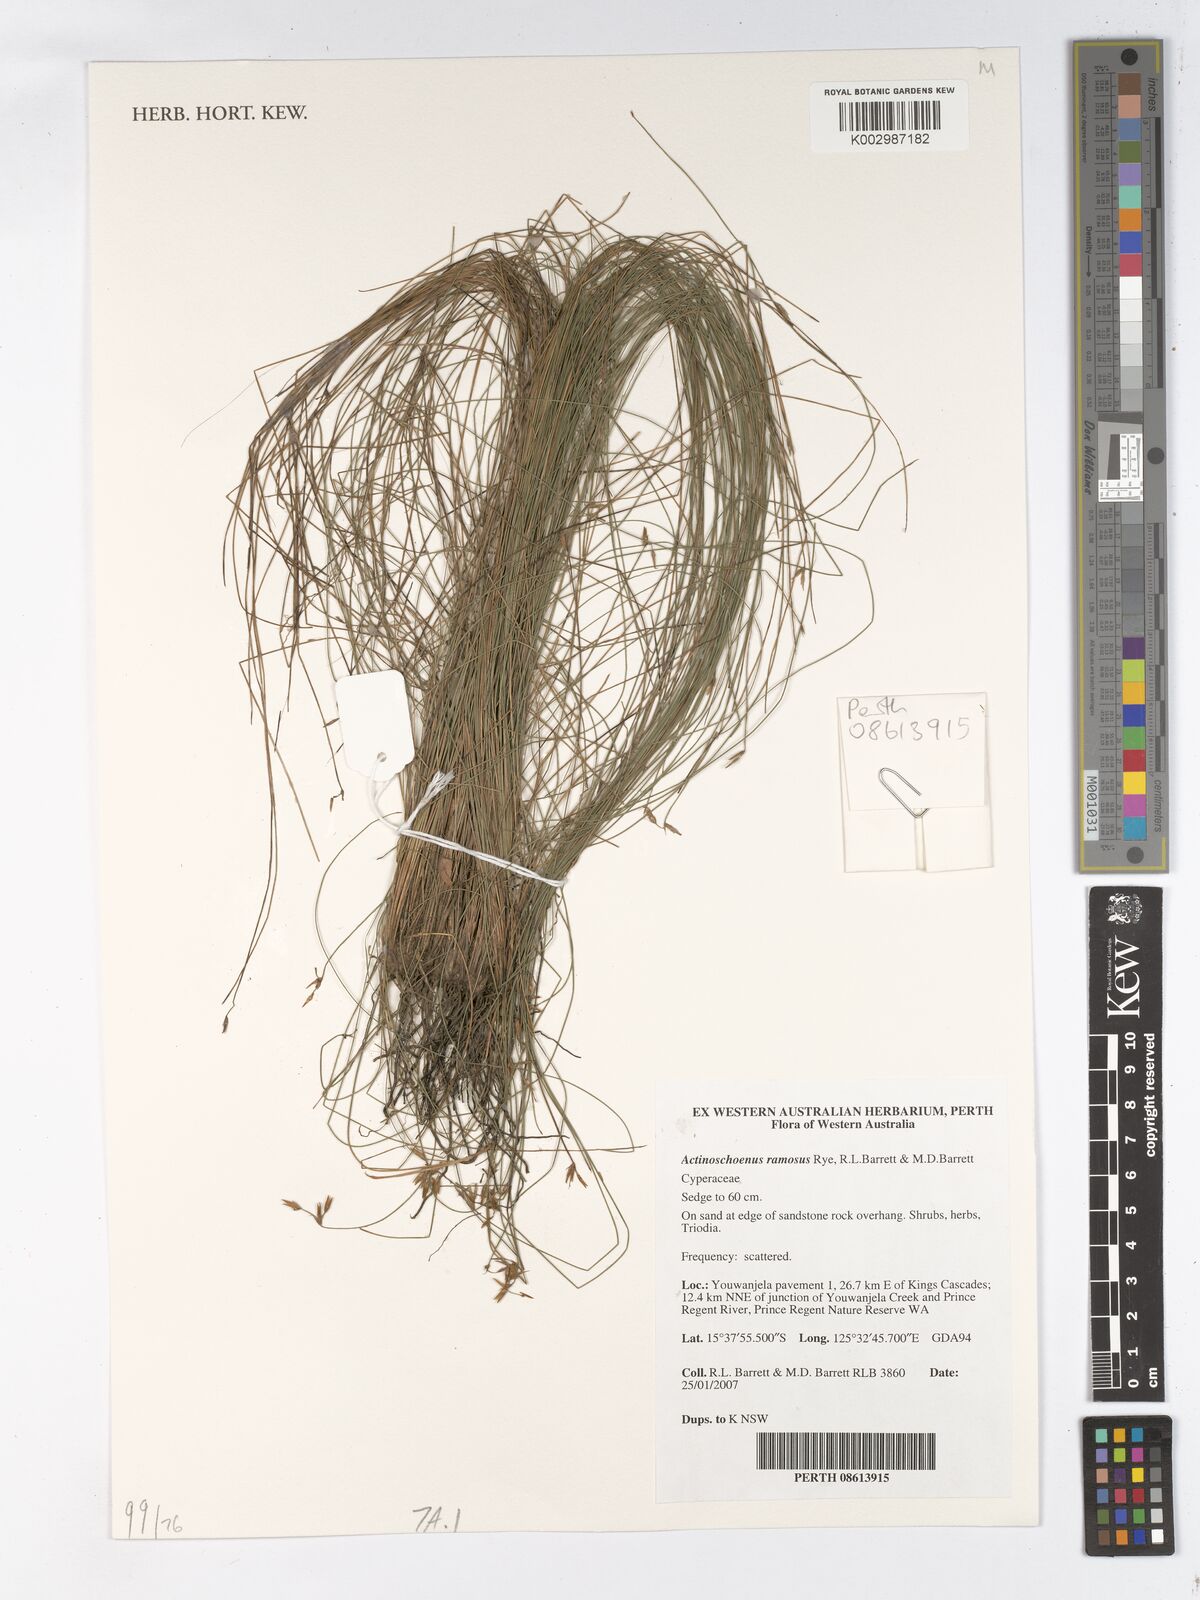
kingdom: Plantae
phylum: Tracheophyta
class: Liliopsida
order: Poales
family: Cyperaceae
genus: Scleroschoenus
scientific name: Scleroschoenus ramosus
